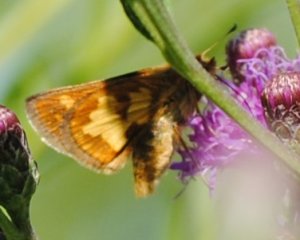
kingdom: Animalia
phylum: Arthropoda
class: Insecta
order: Lepidoptera
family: Hesperiidae
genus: Polites
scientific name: Polites coras
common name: Peck's Skipper
